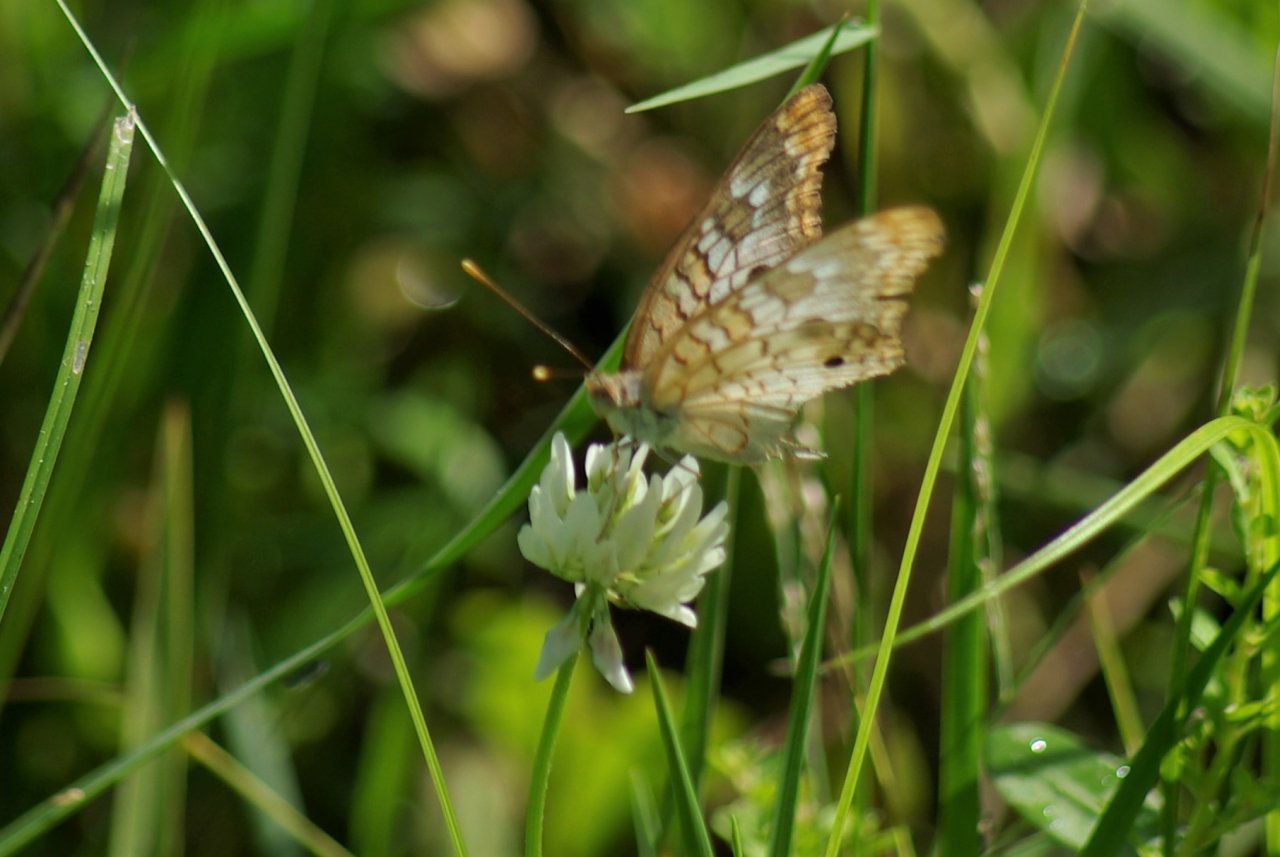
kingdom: Animalia
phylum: Arthropoda
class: Insecta
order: Lepidoptera
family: Nymphalidae
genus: Anartia
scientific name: Anartia jatrophae
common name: White Peacock
